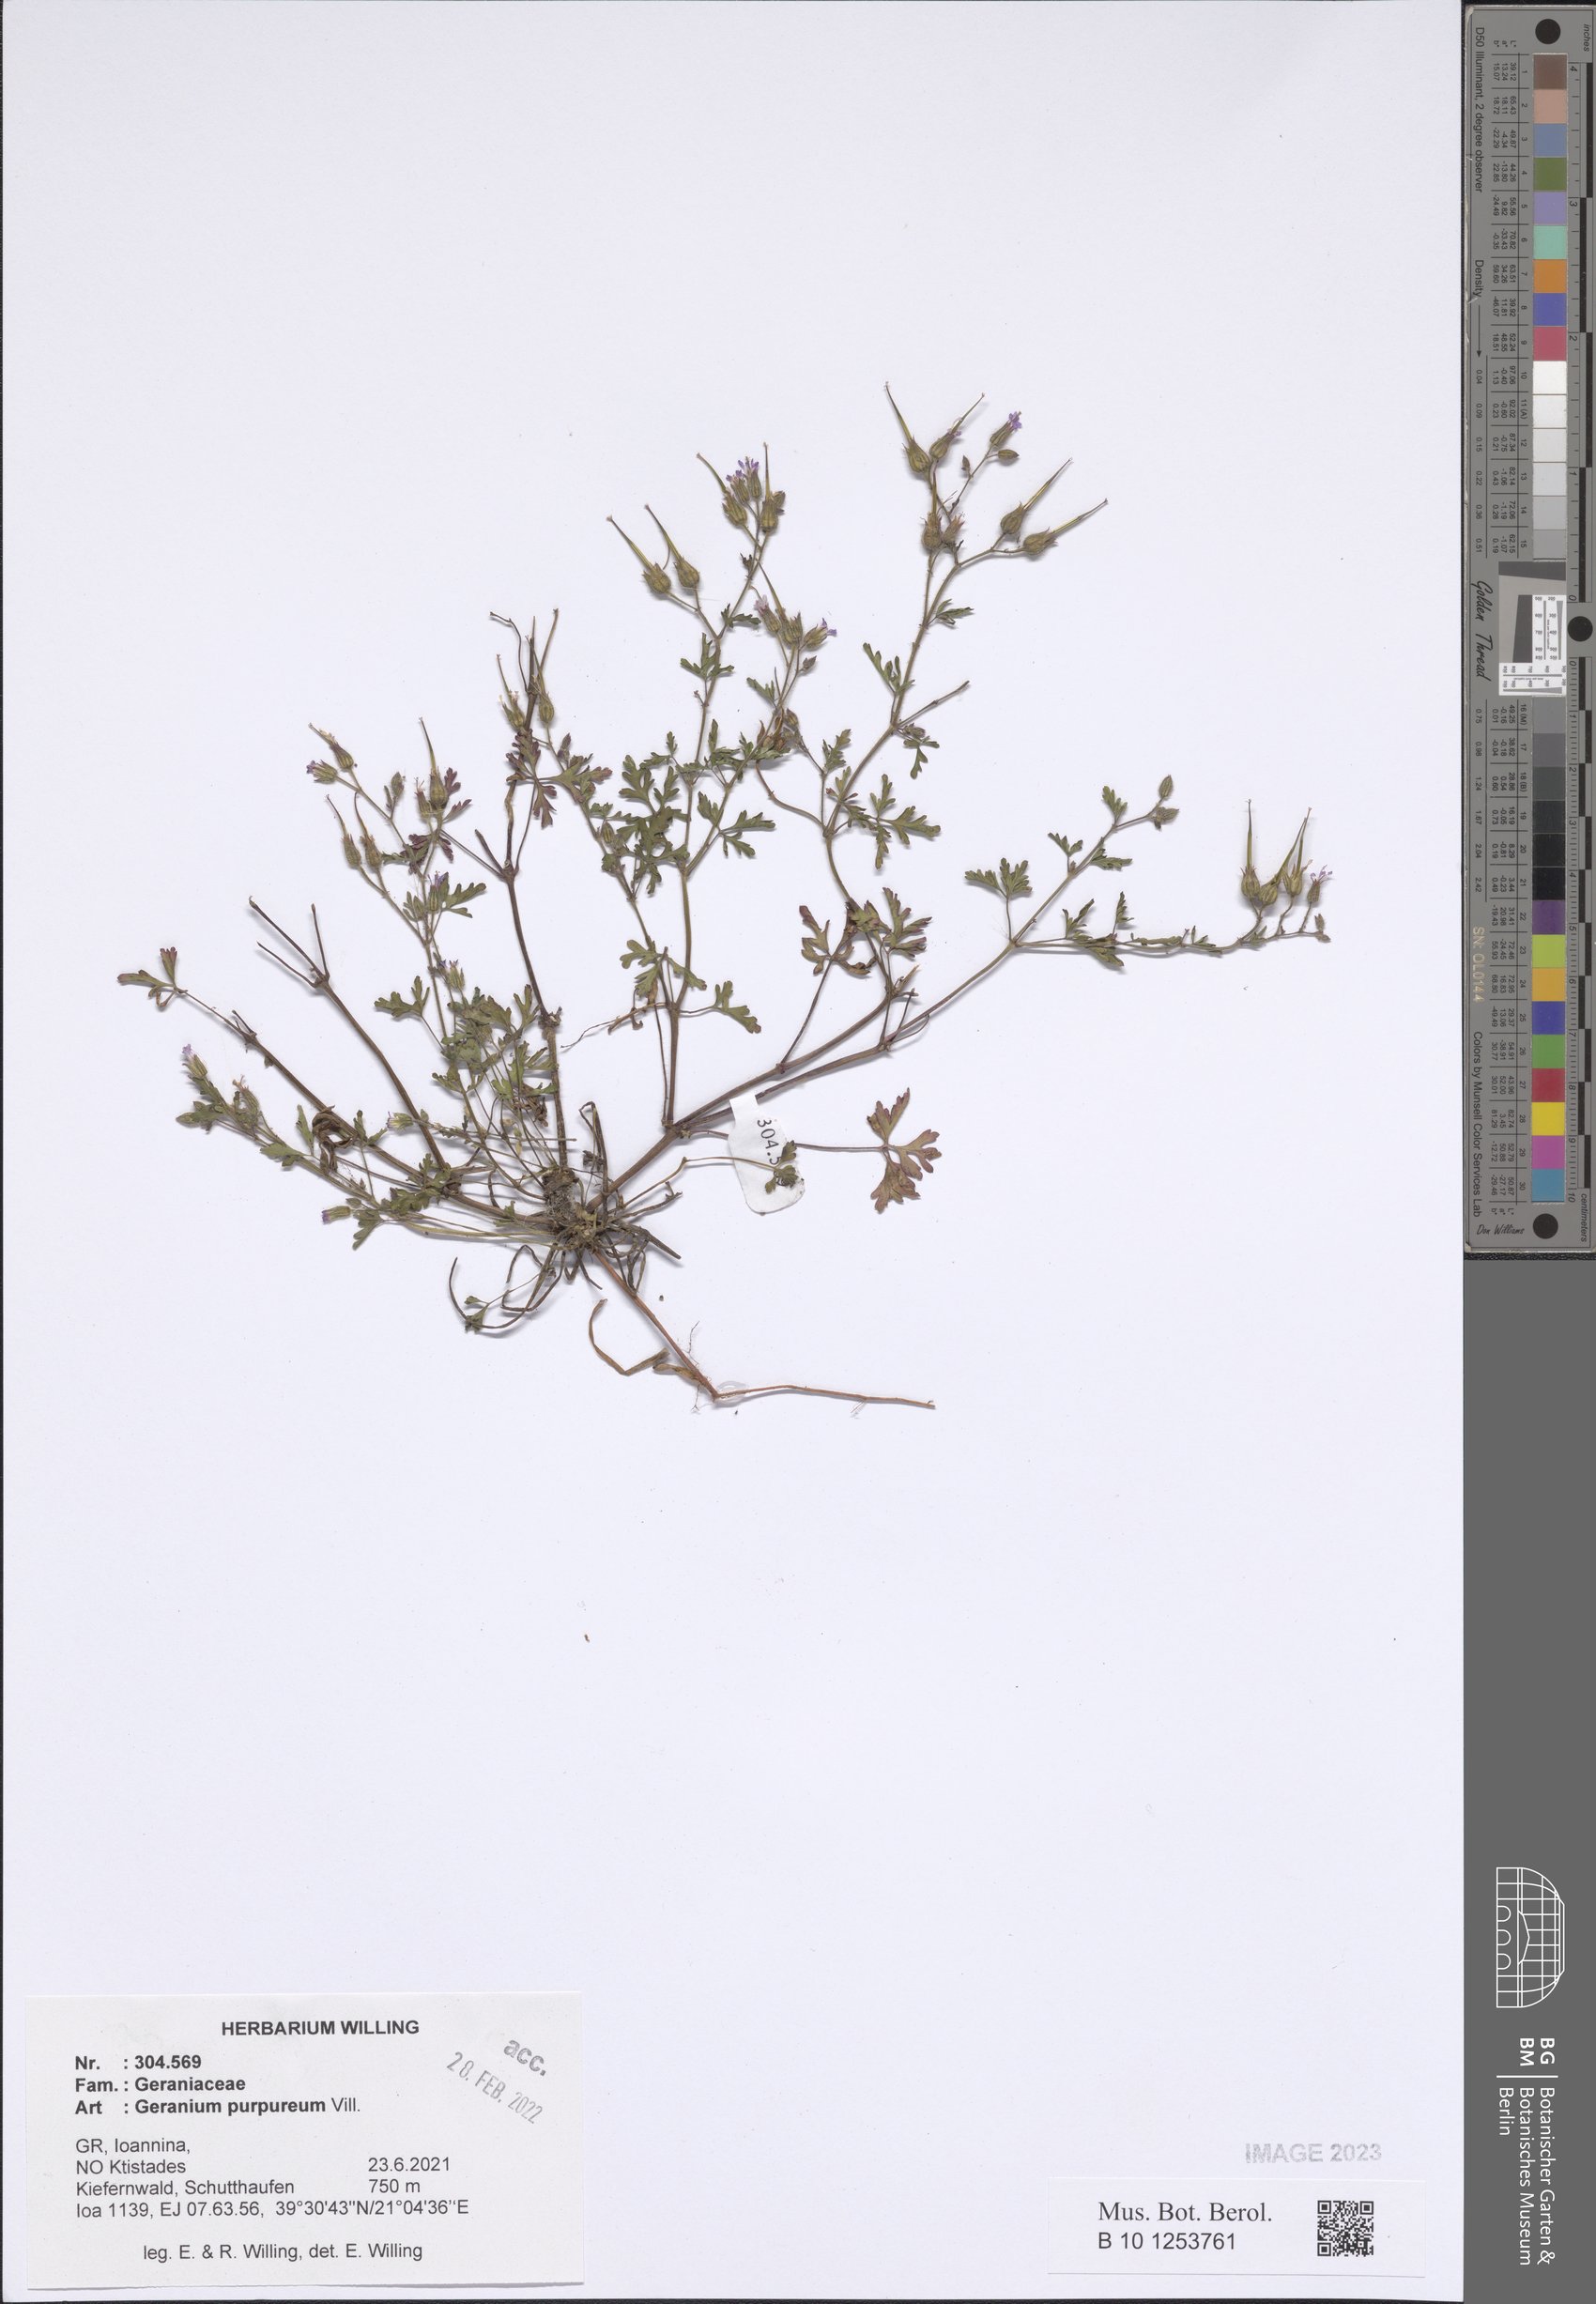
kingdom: Plantae
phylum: Tracheophyta
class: Magnoliopsida
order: Geraniales
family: Geraniaceae
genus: Geranium
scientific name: Geranium purpureum
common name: Little-robin
